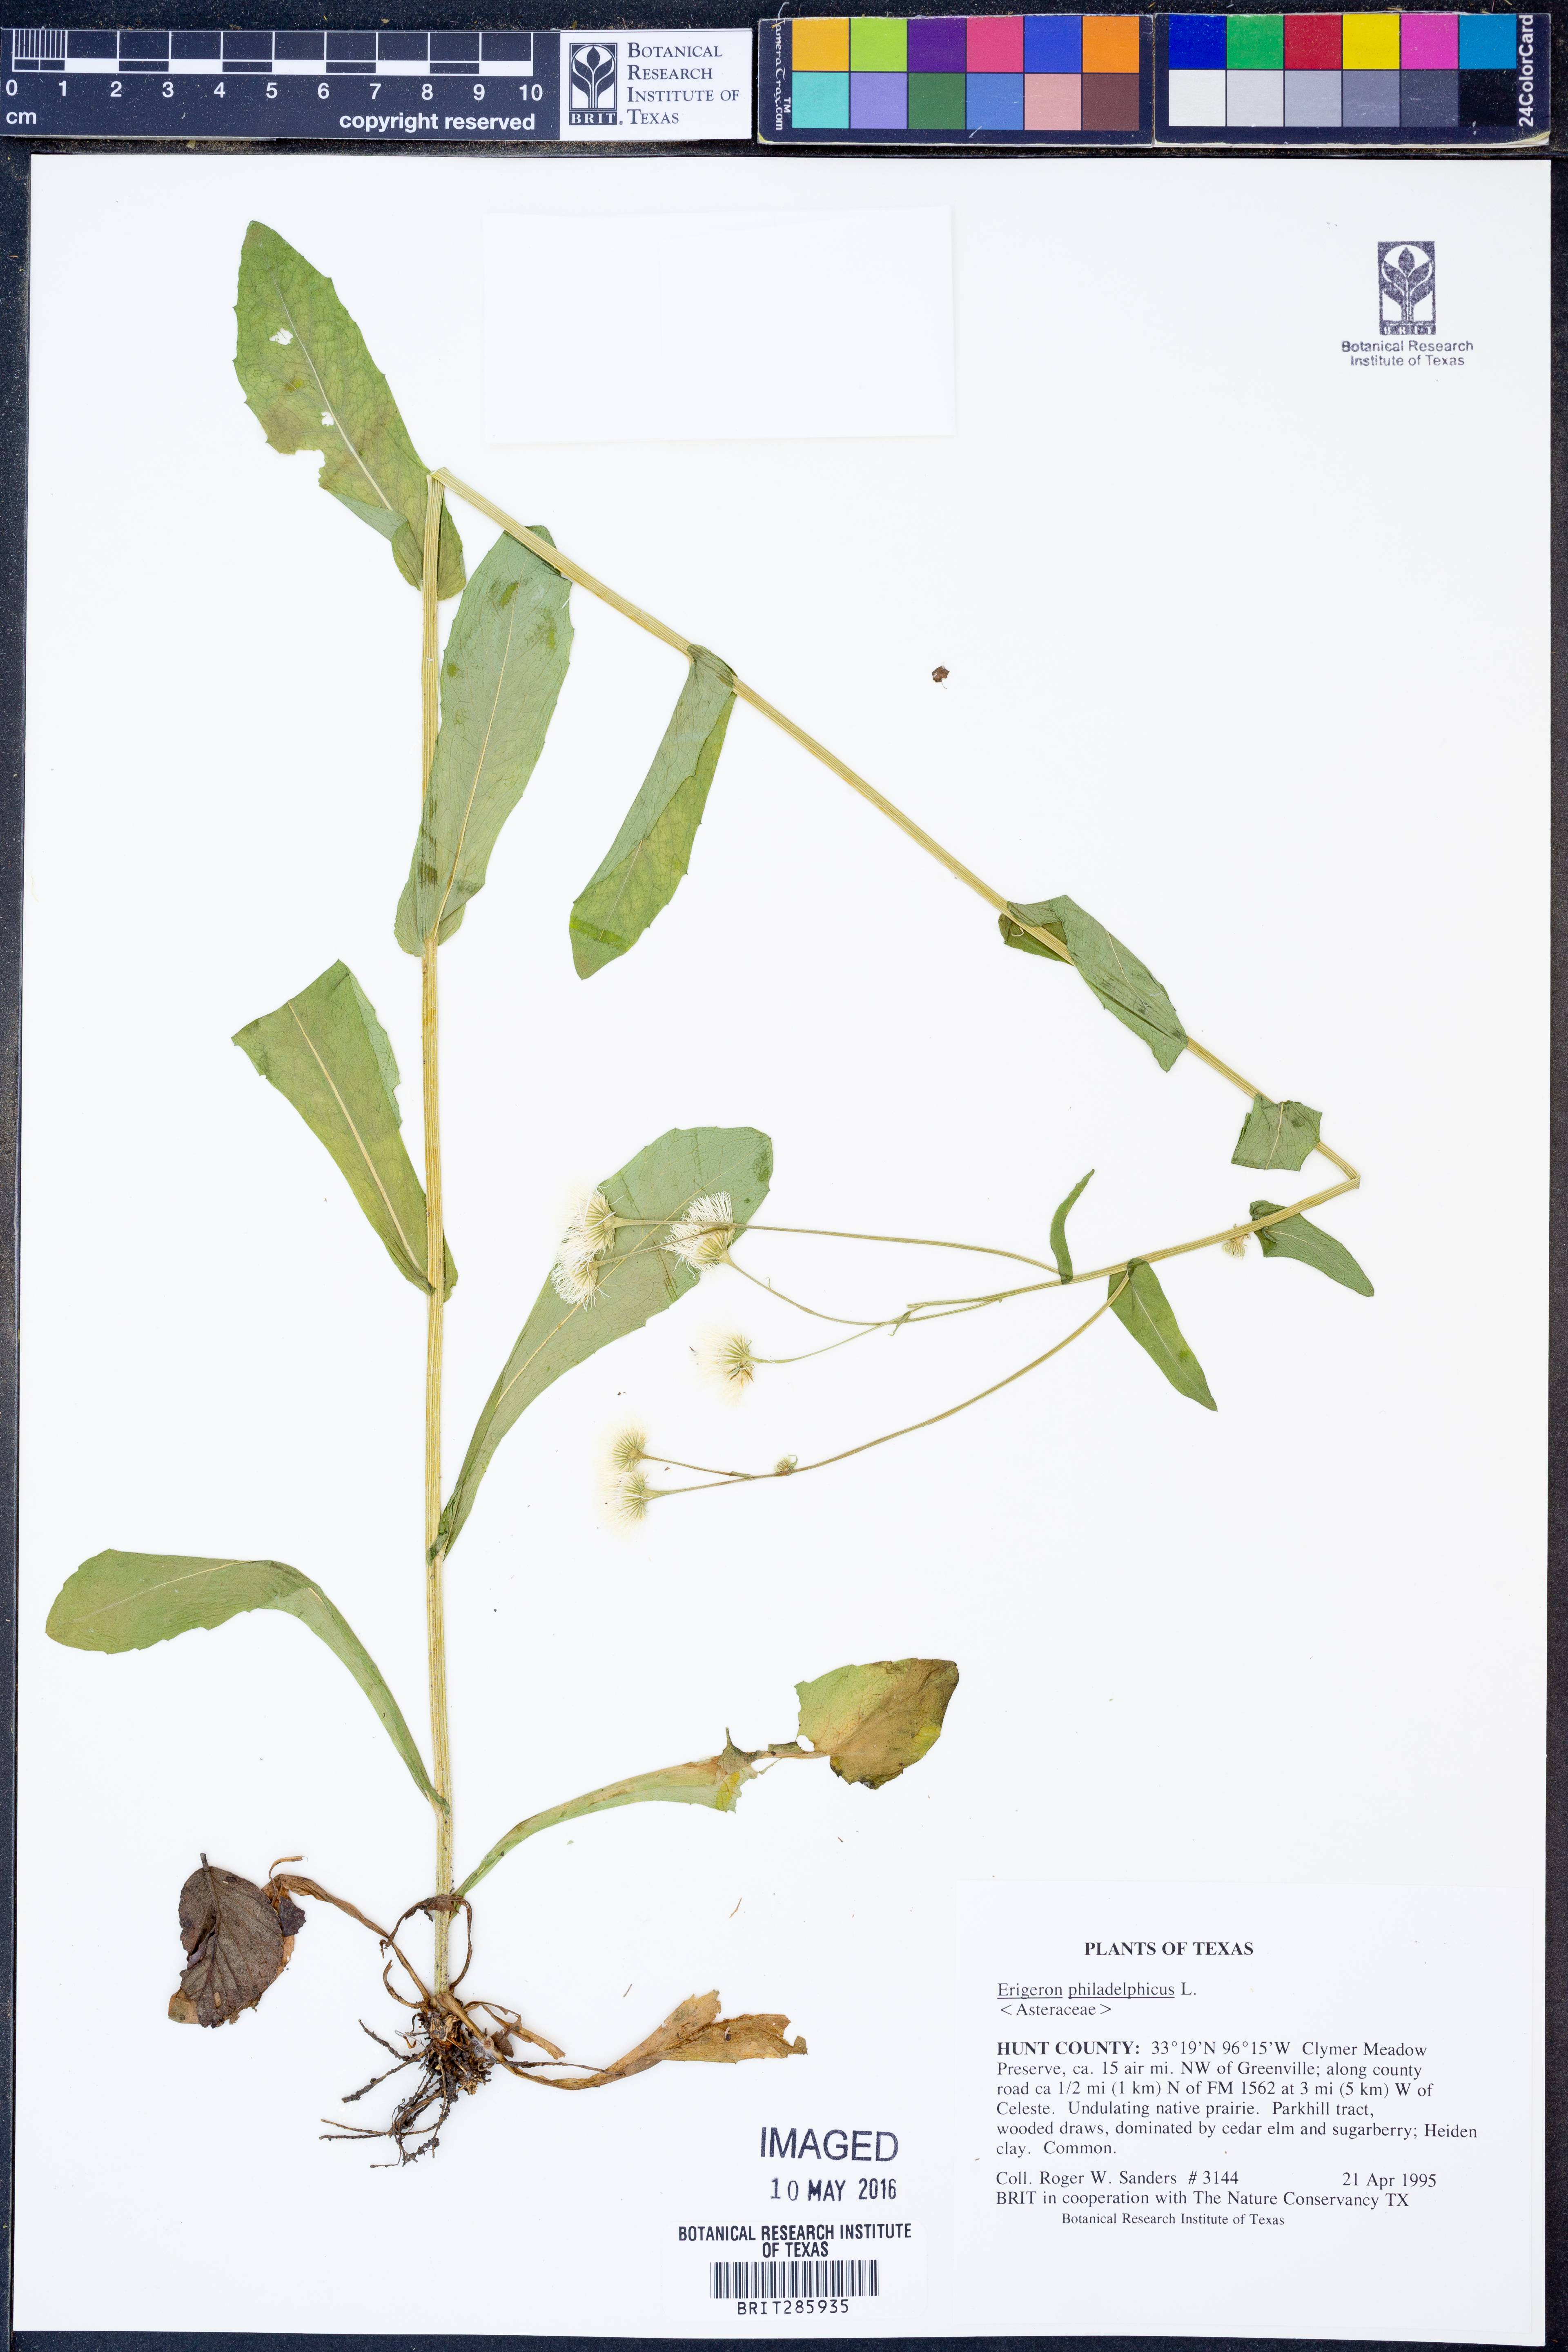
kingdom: Plantae
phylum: Tracheophyta
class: Magnoliopsida
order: Asterales
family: Asteraceae
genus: Erigeron
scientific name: Erigeron philadelphicus
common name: Robin's-plantain
